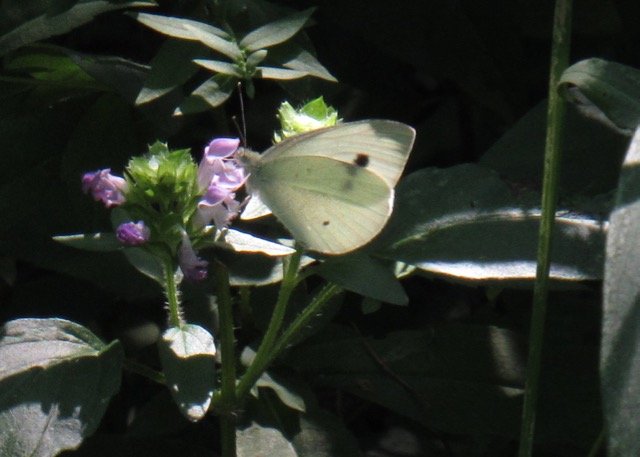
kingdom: Animalia
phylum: Arthropoda
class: Insecta
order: Lepidoptera
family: Pieridae
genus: Pieris
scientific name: Pieris rapae
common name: Cabbage White
